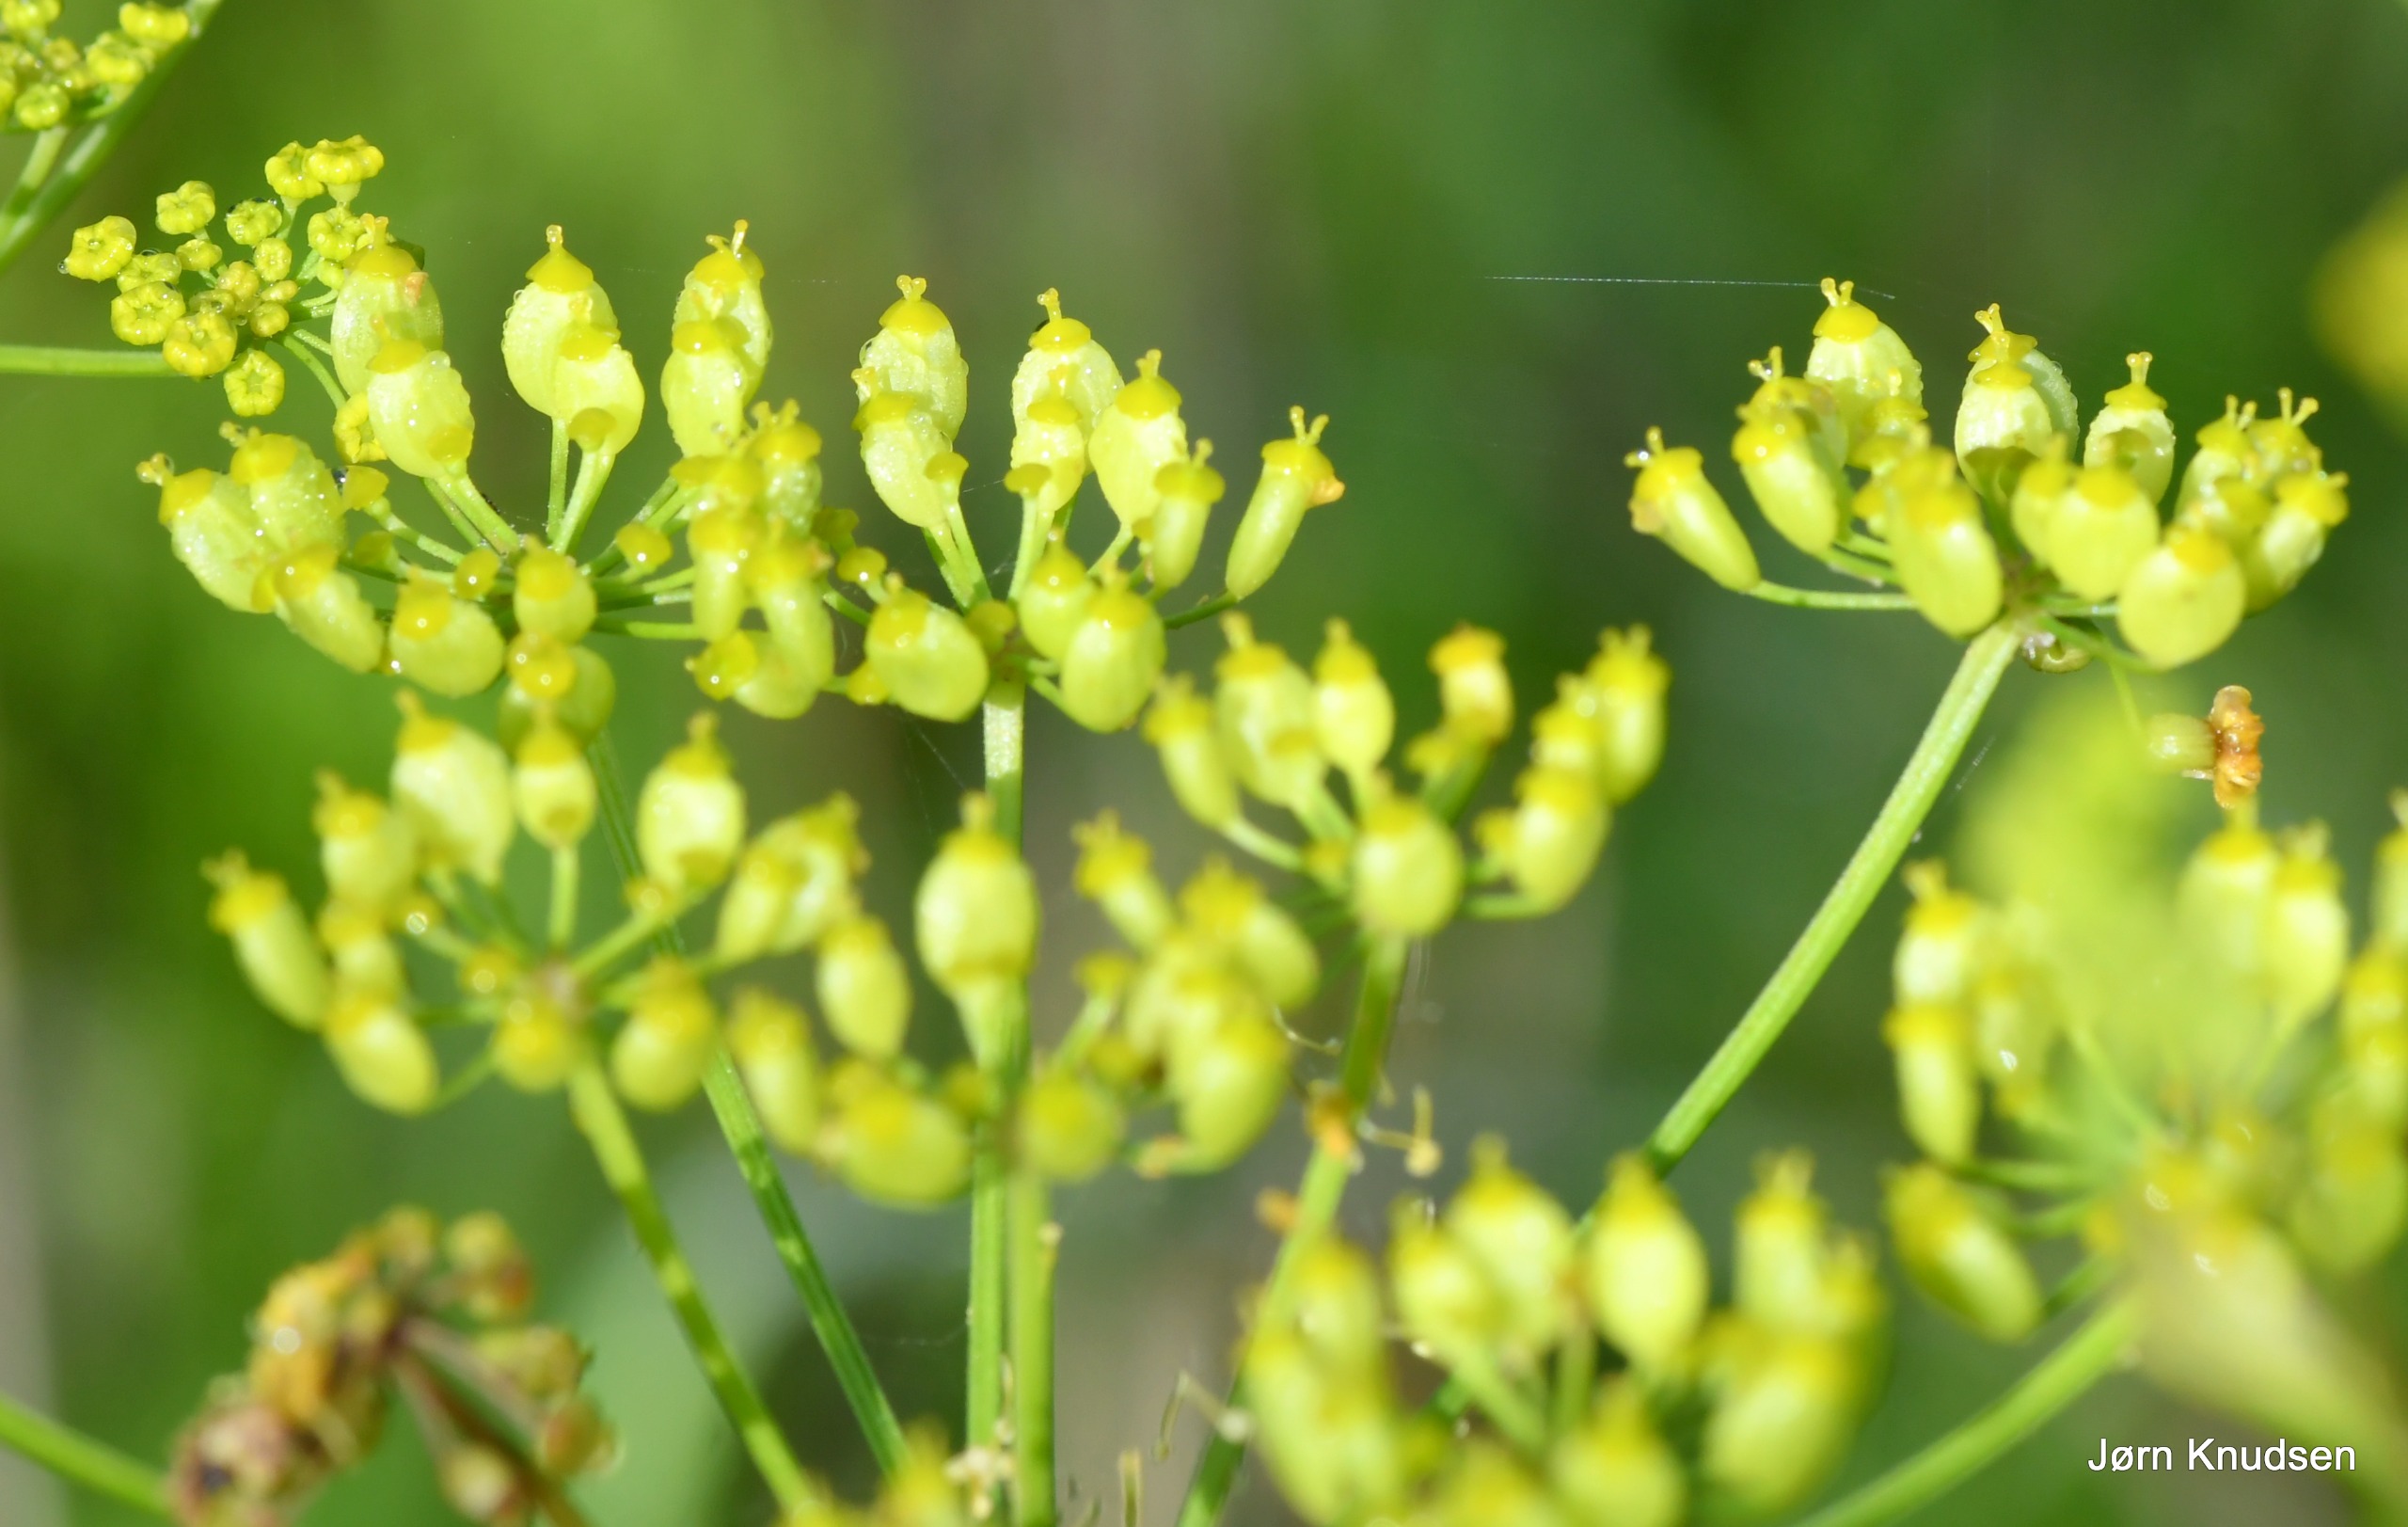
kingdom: Plantae
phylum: Tracheophyta
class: Magnoliopsida
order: Apiales
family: Apiaceae
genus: Pastinaca
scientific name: Pastinaca sativa
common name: Have-pastinak
